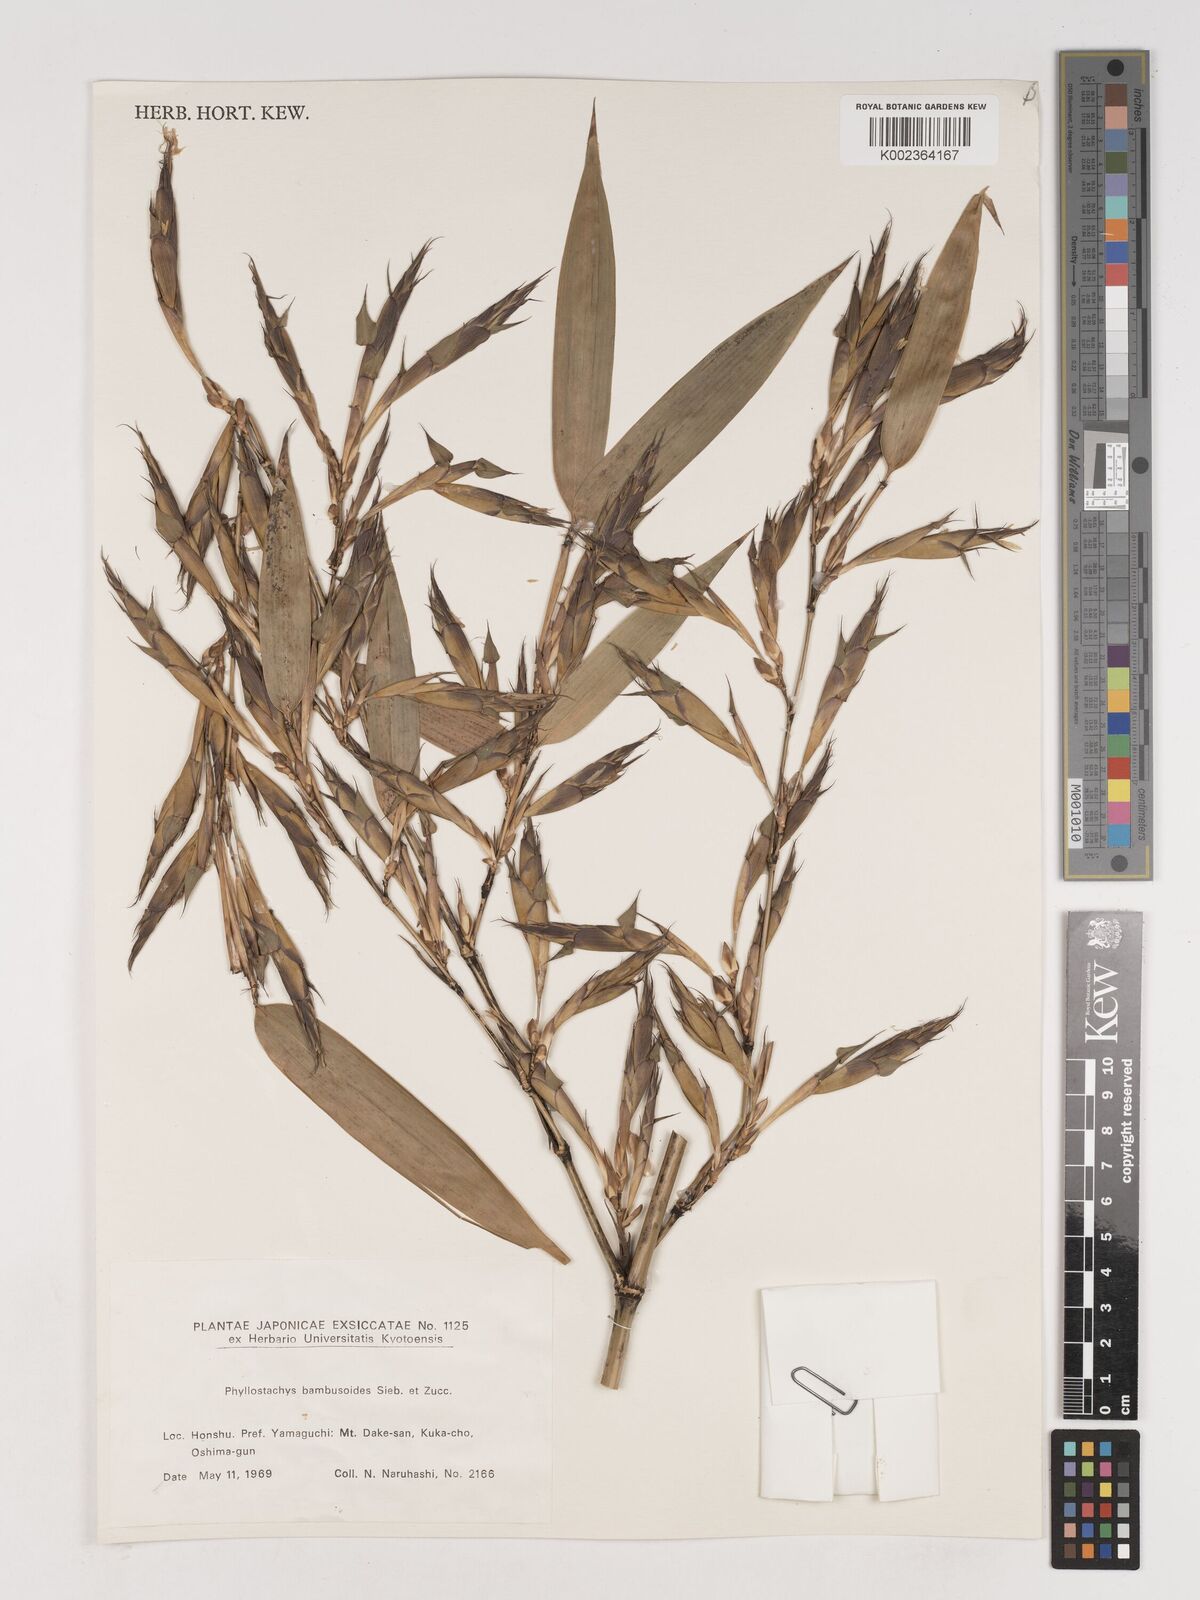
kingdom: Plantae
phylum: Tracheophyta
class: Liliopsida
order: Poales
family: Poaceae
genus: Phyllostachys
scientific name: Phyllostachys reticulata
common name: Bamboo
